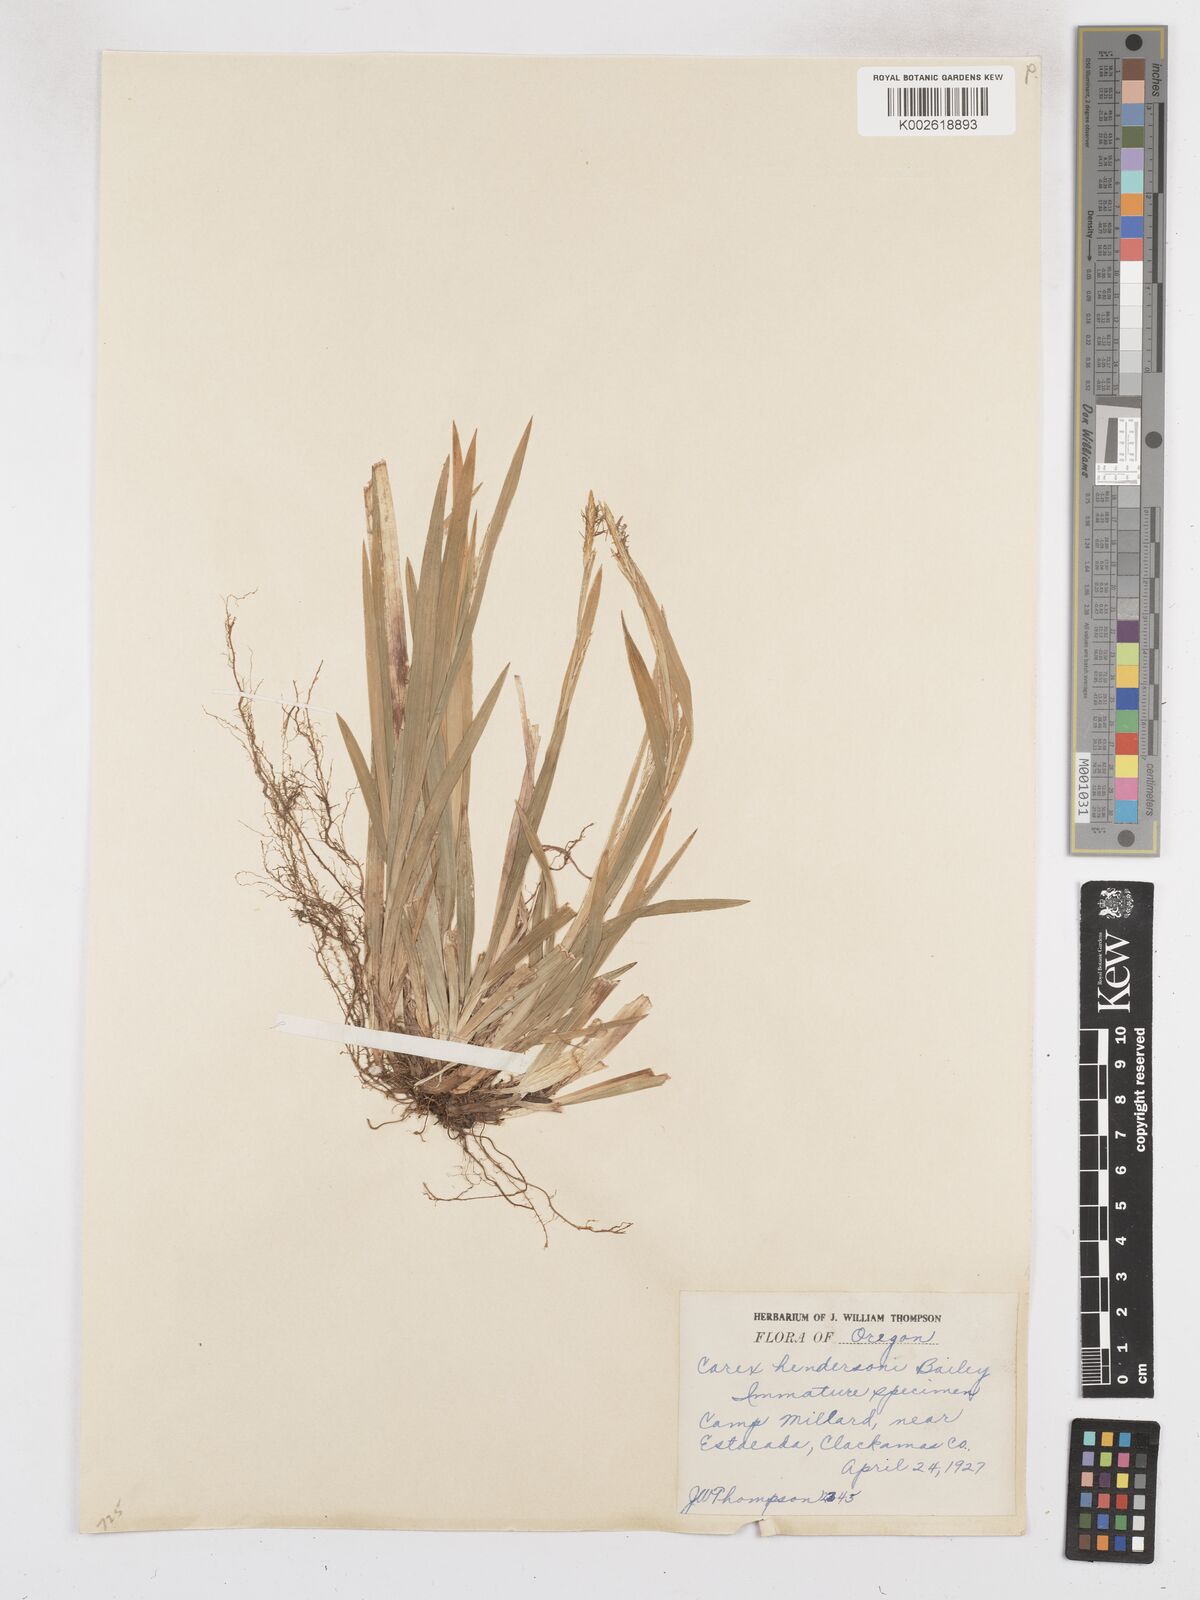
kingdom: Plantae
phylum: Tracheophyta
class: Liliopsida
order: Poales
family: Cyperaceae
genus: Carex
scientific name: Carex hendersonii
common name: Henderson's sedge
